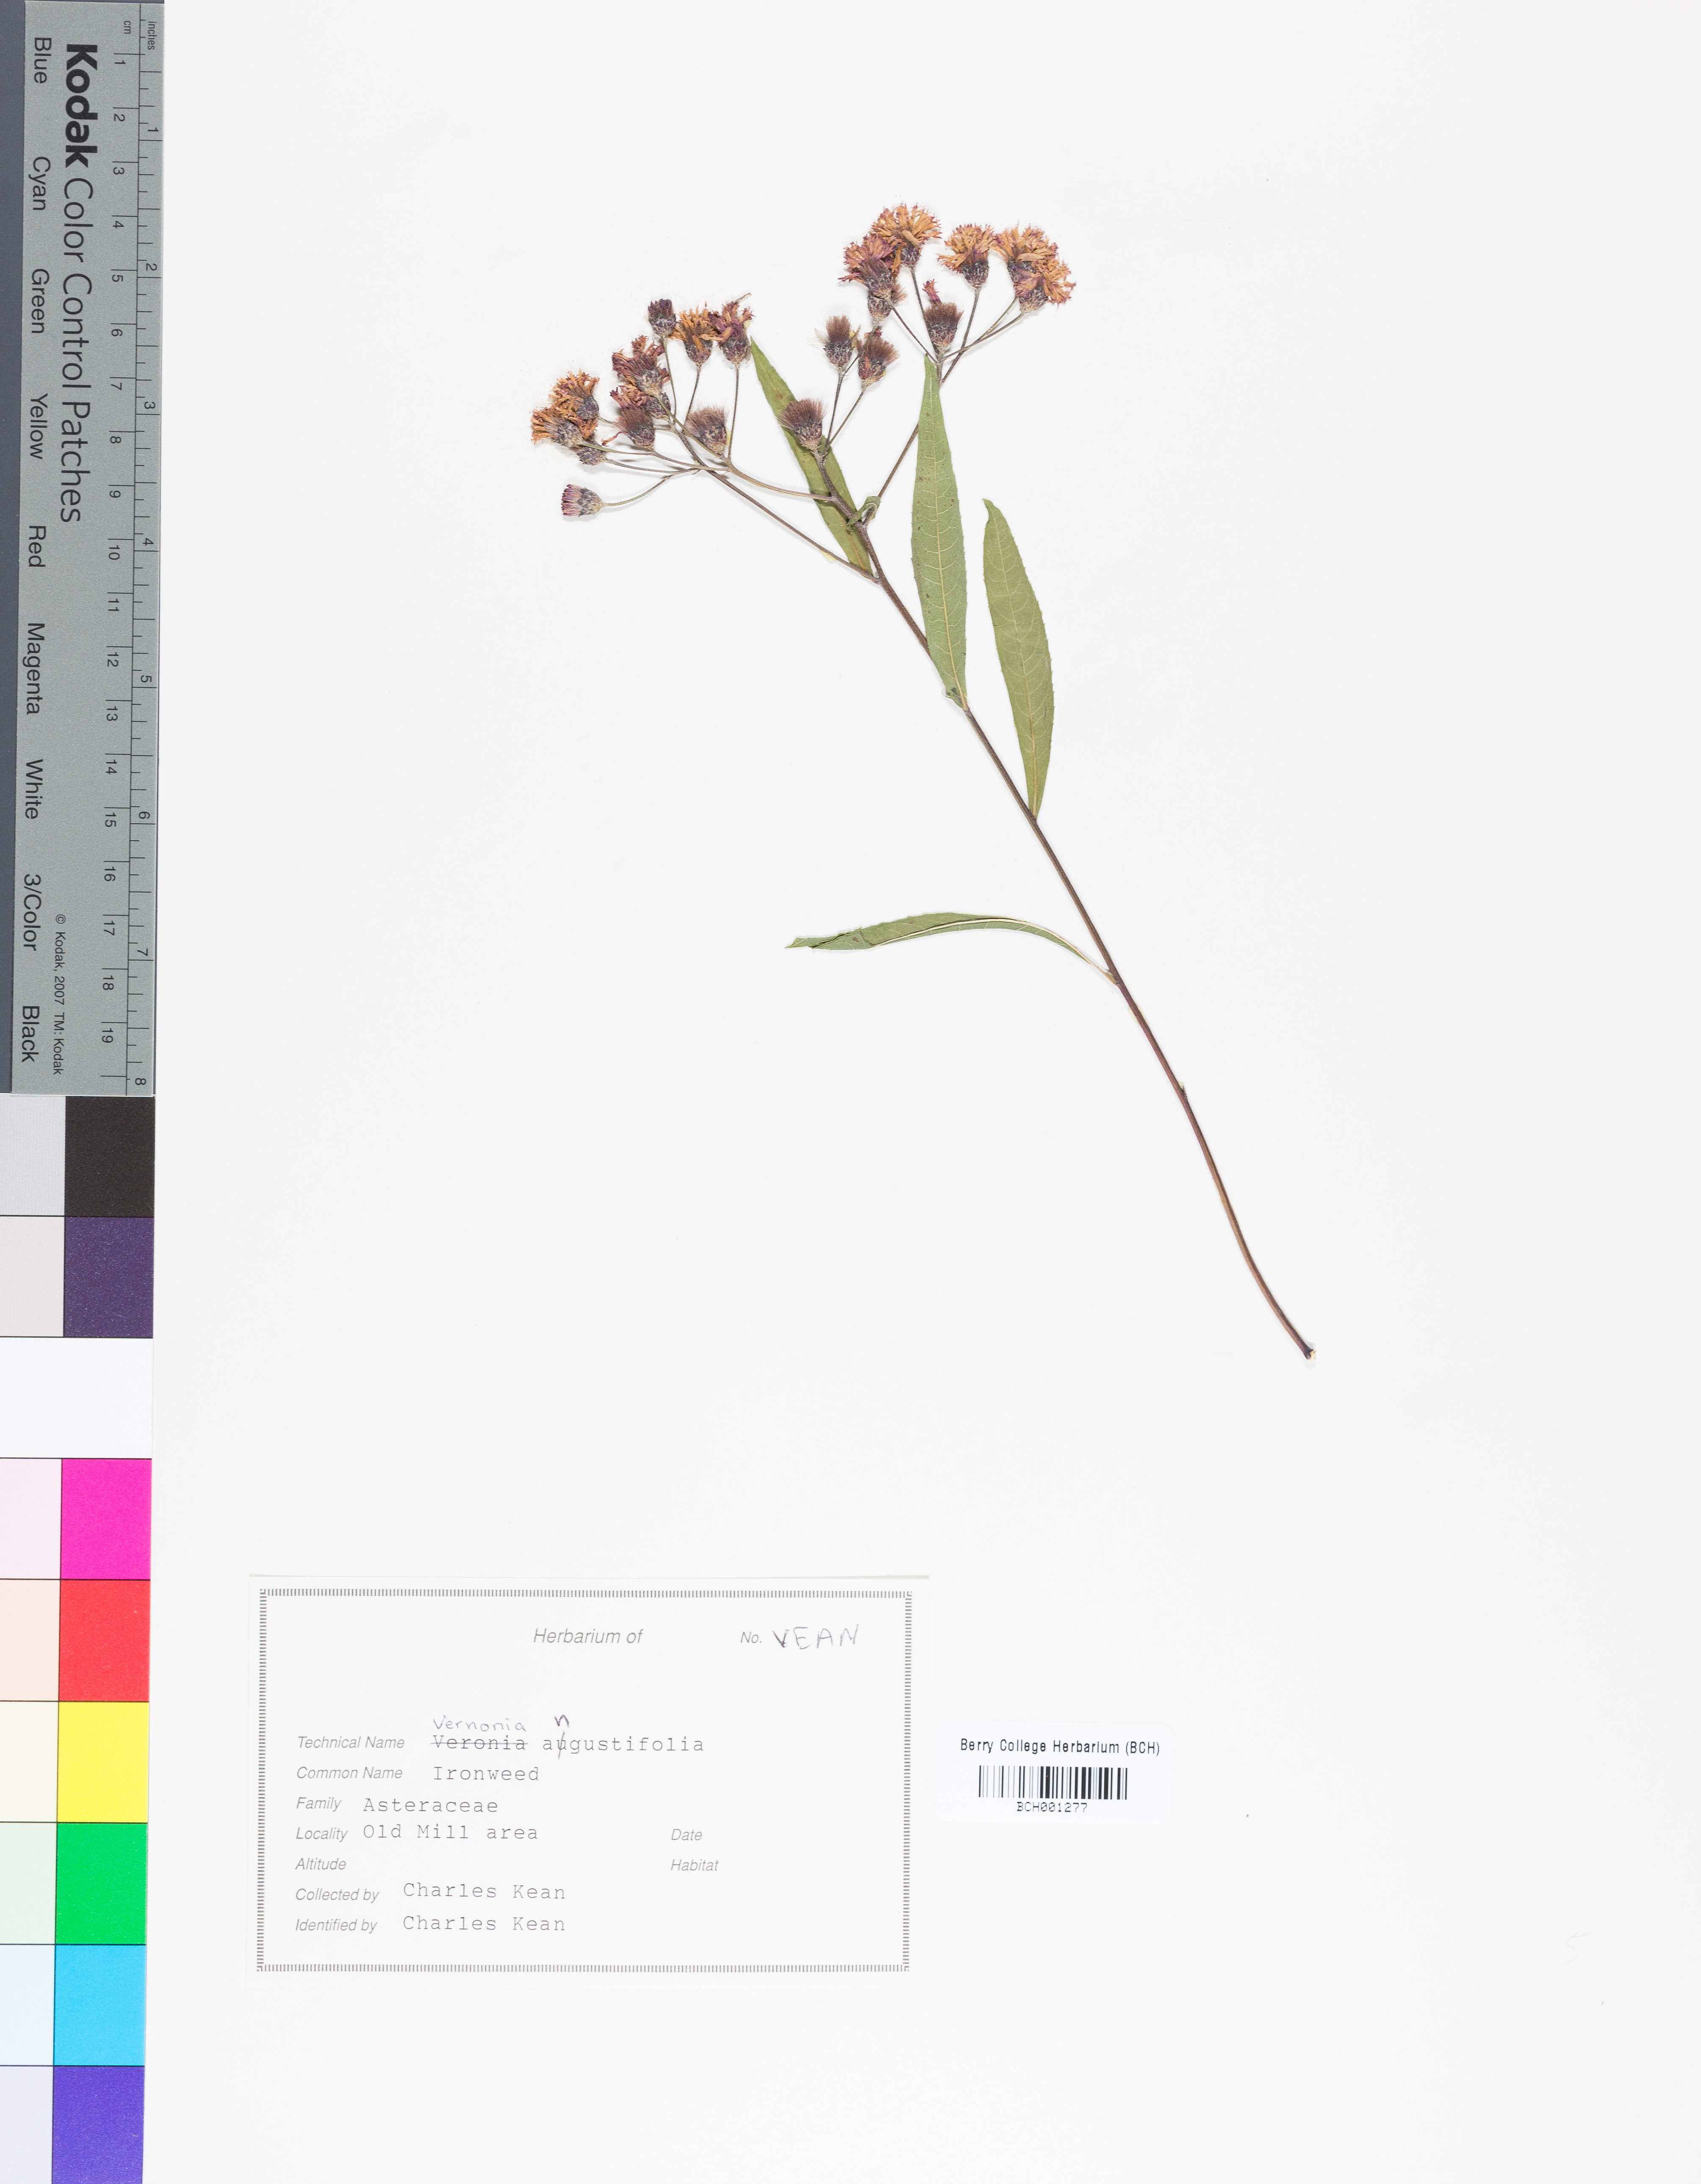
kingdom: Plantae
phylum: Tracheophyta
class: Magnoliopsida
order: Asterales
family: Asteraceae
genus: Vernonia
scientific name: Vernonia angustifolia
